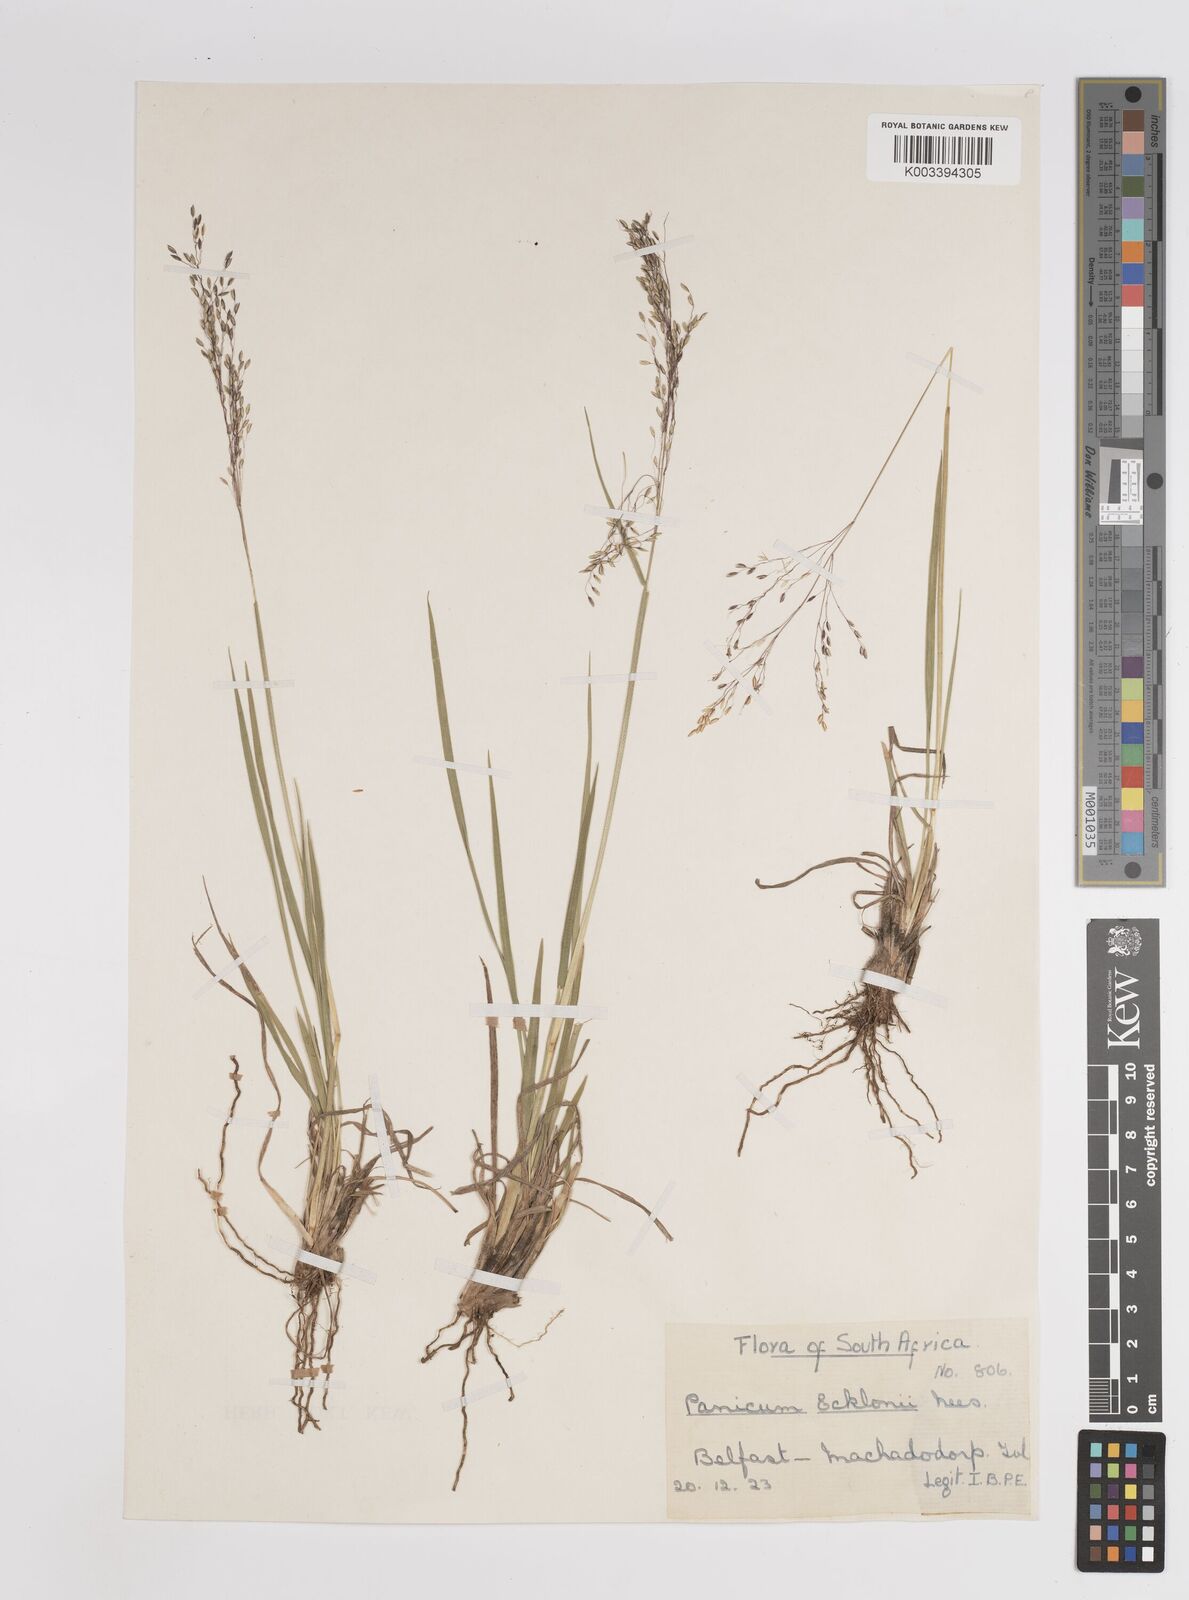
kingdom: Plantae
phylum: Tracheophyta
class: Liliopsida
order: Poales
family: Poaceae
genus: Adenochloa
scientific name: Adenochloa ecklonii
